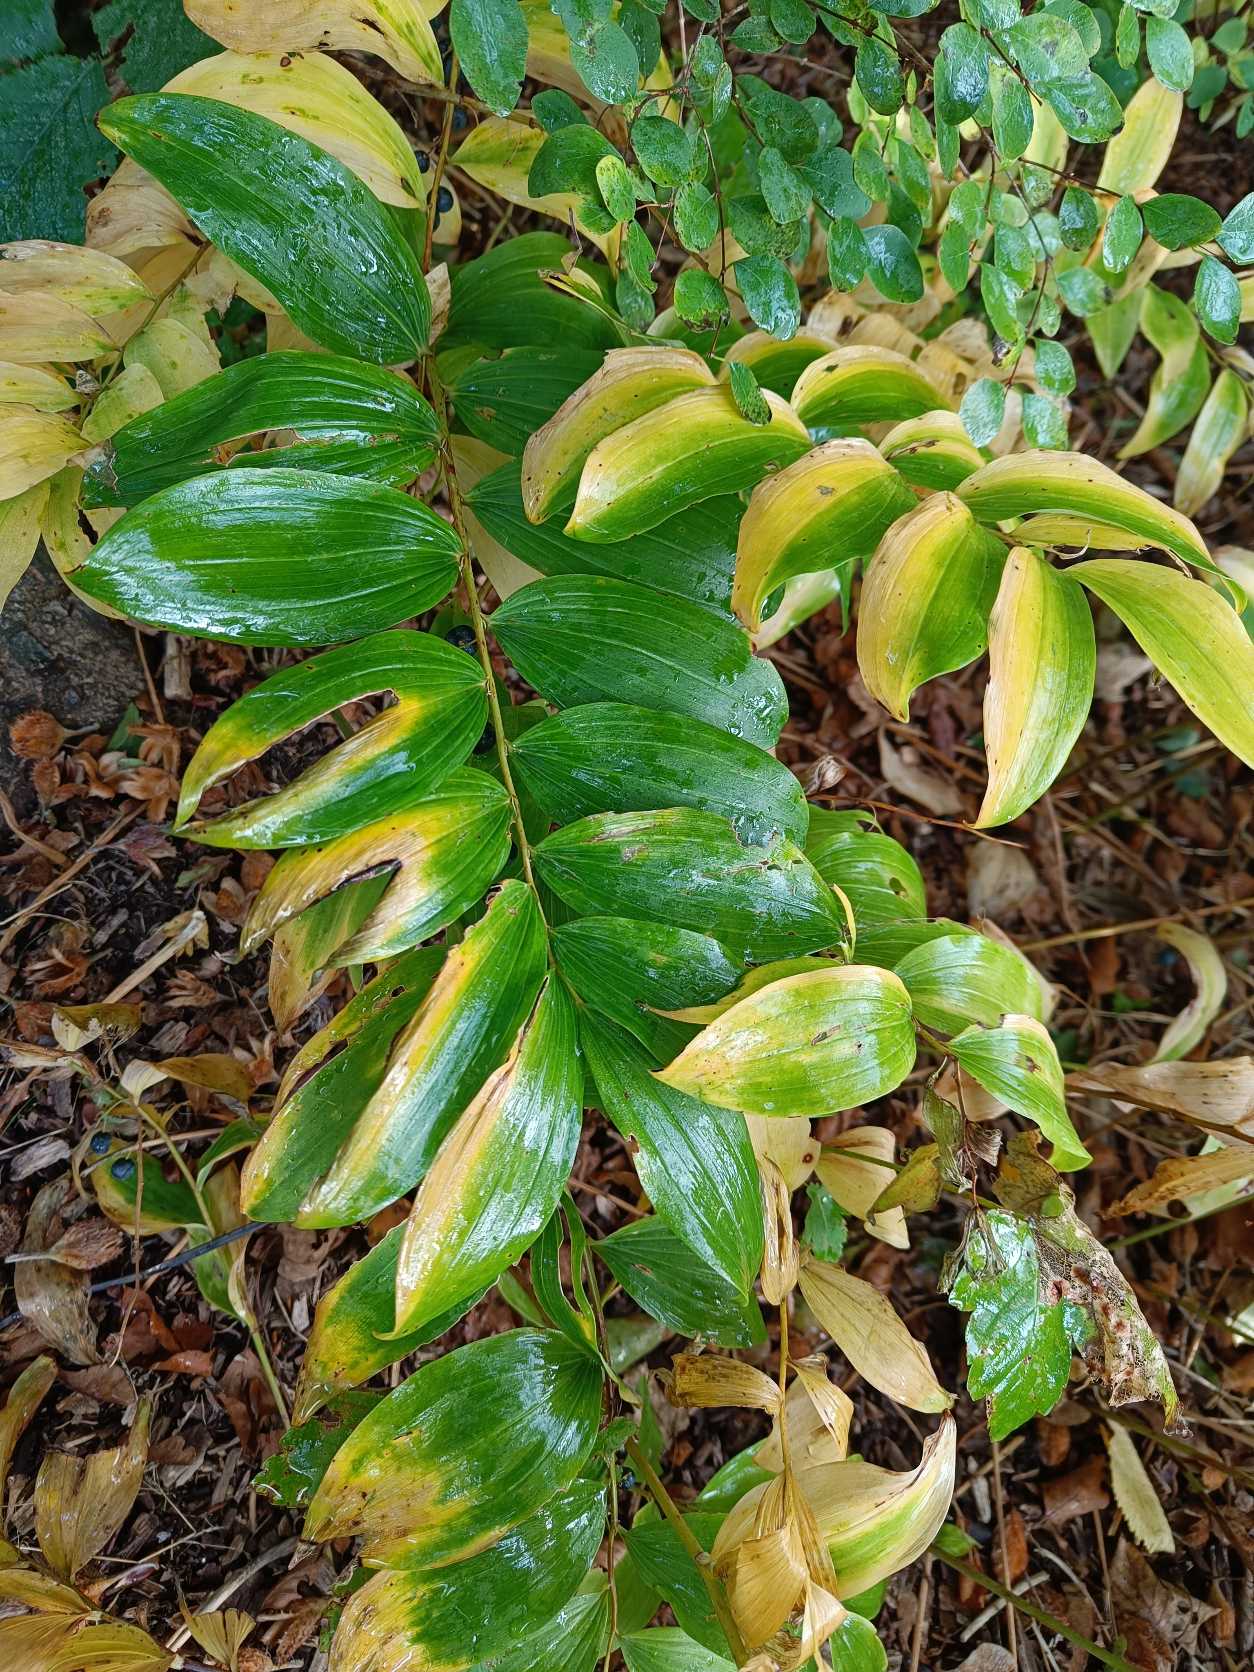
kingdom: Plantae
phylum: Tracheophyta
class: Liliopsida
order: Asparagales
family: Asparagaceae
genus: Polygonatum
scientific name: Polygonatum
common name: Hybrid-konval
